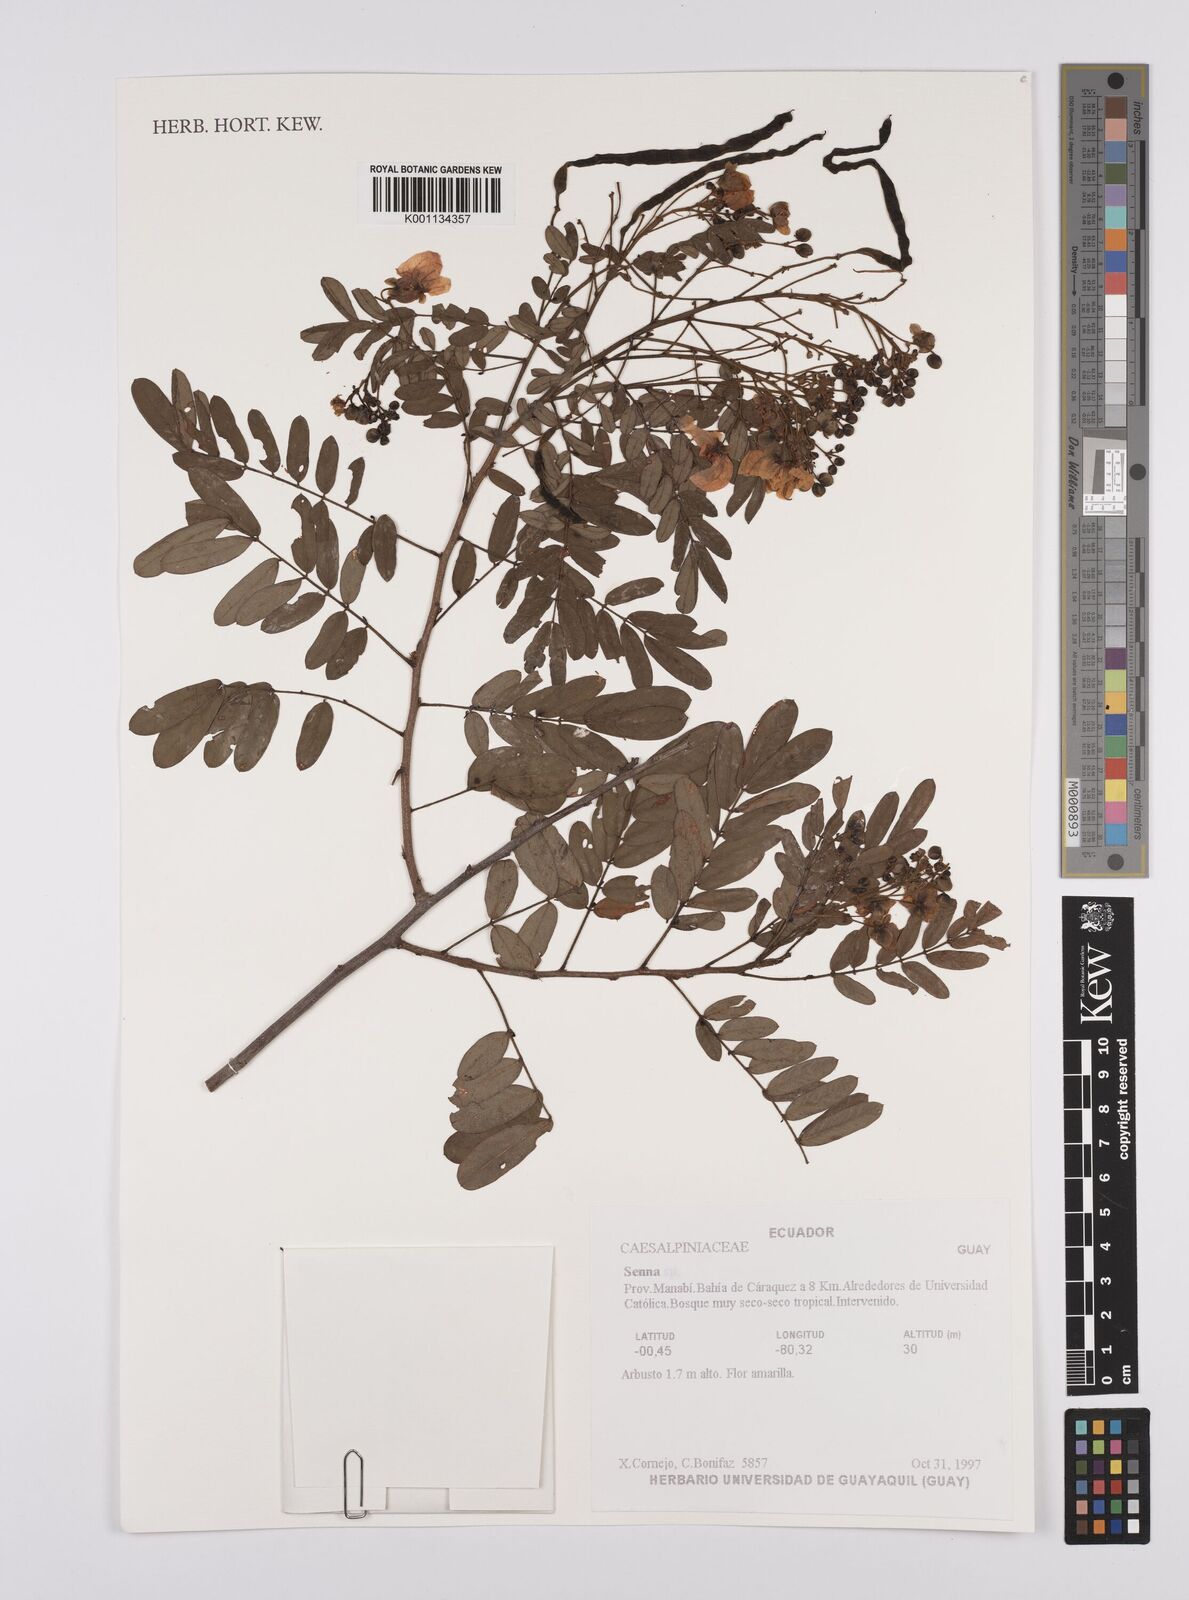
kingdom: Plantae
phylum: Tracheophyta
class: Magnoliopsida
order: Fabales
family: Fabaceae
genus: Senna
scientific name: Senna
